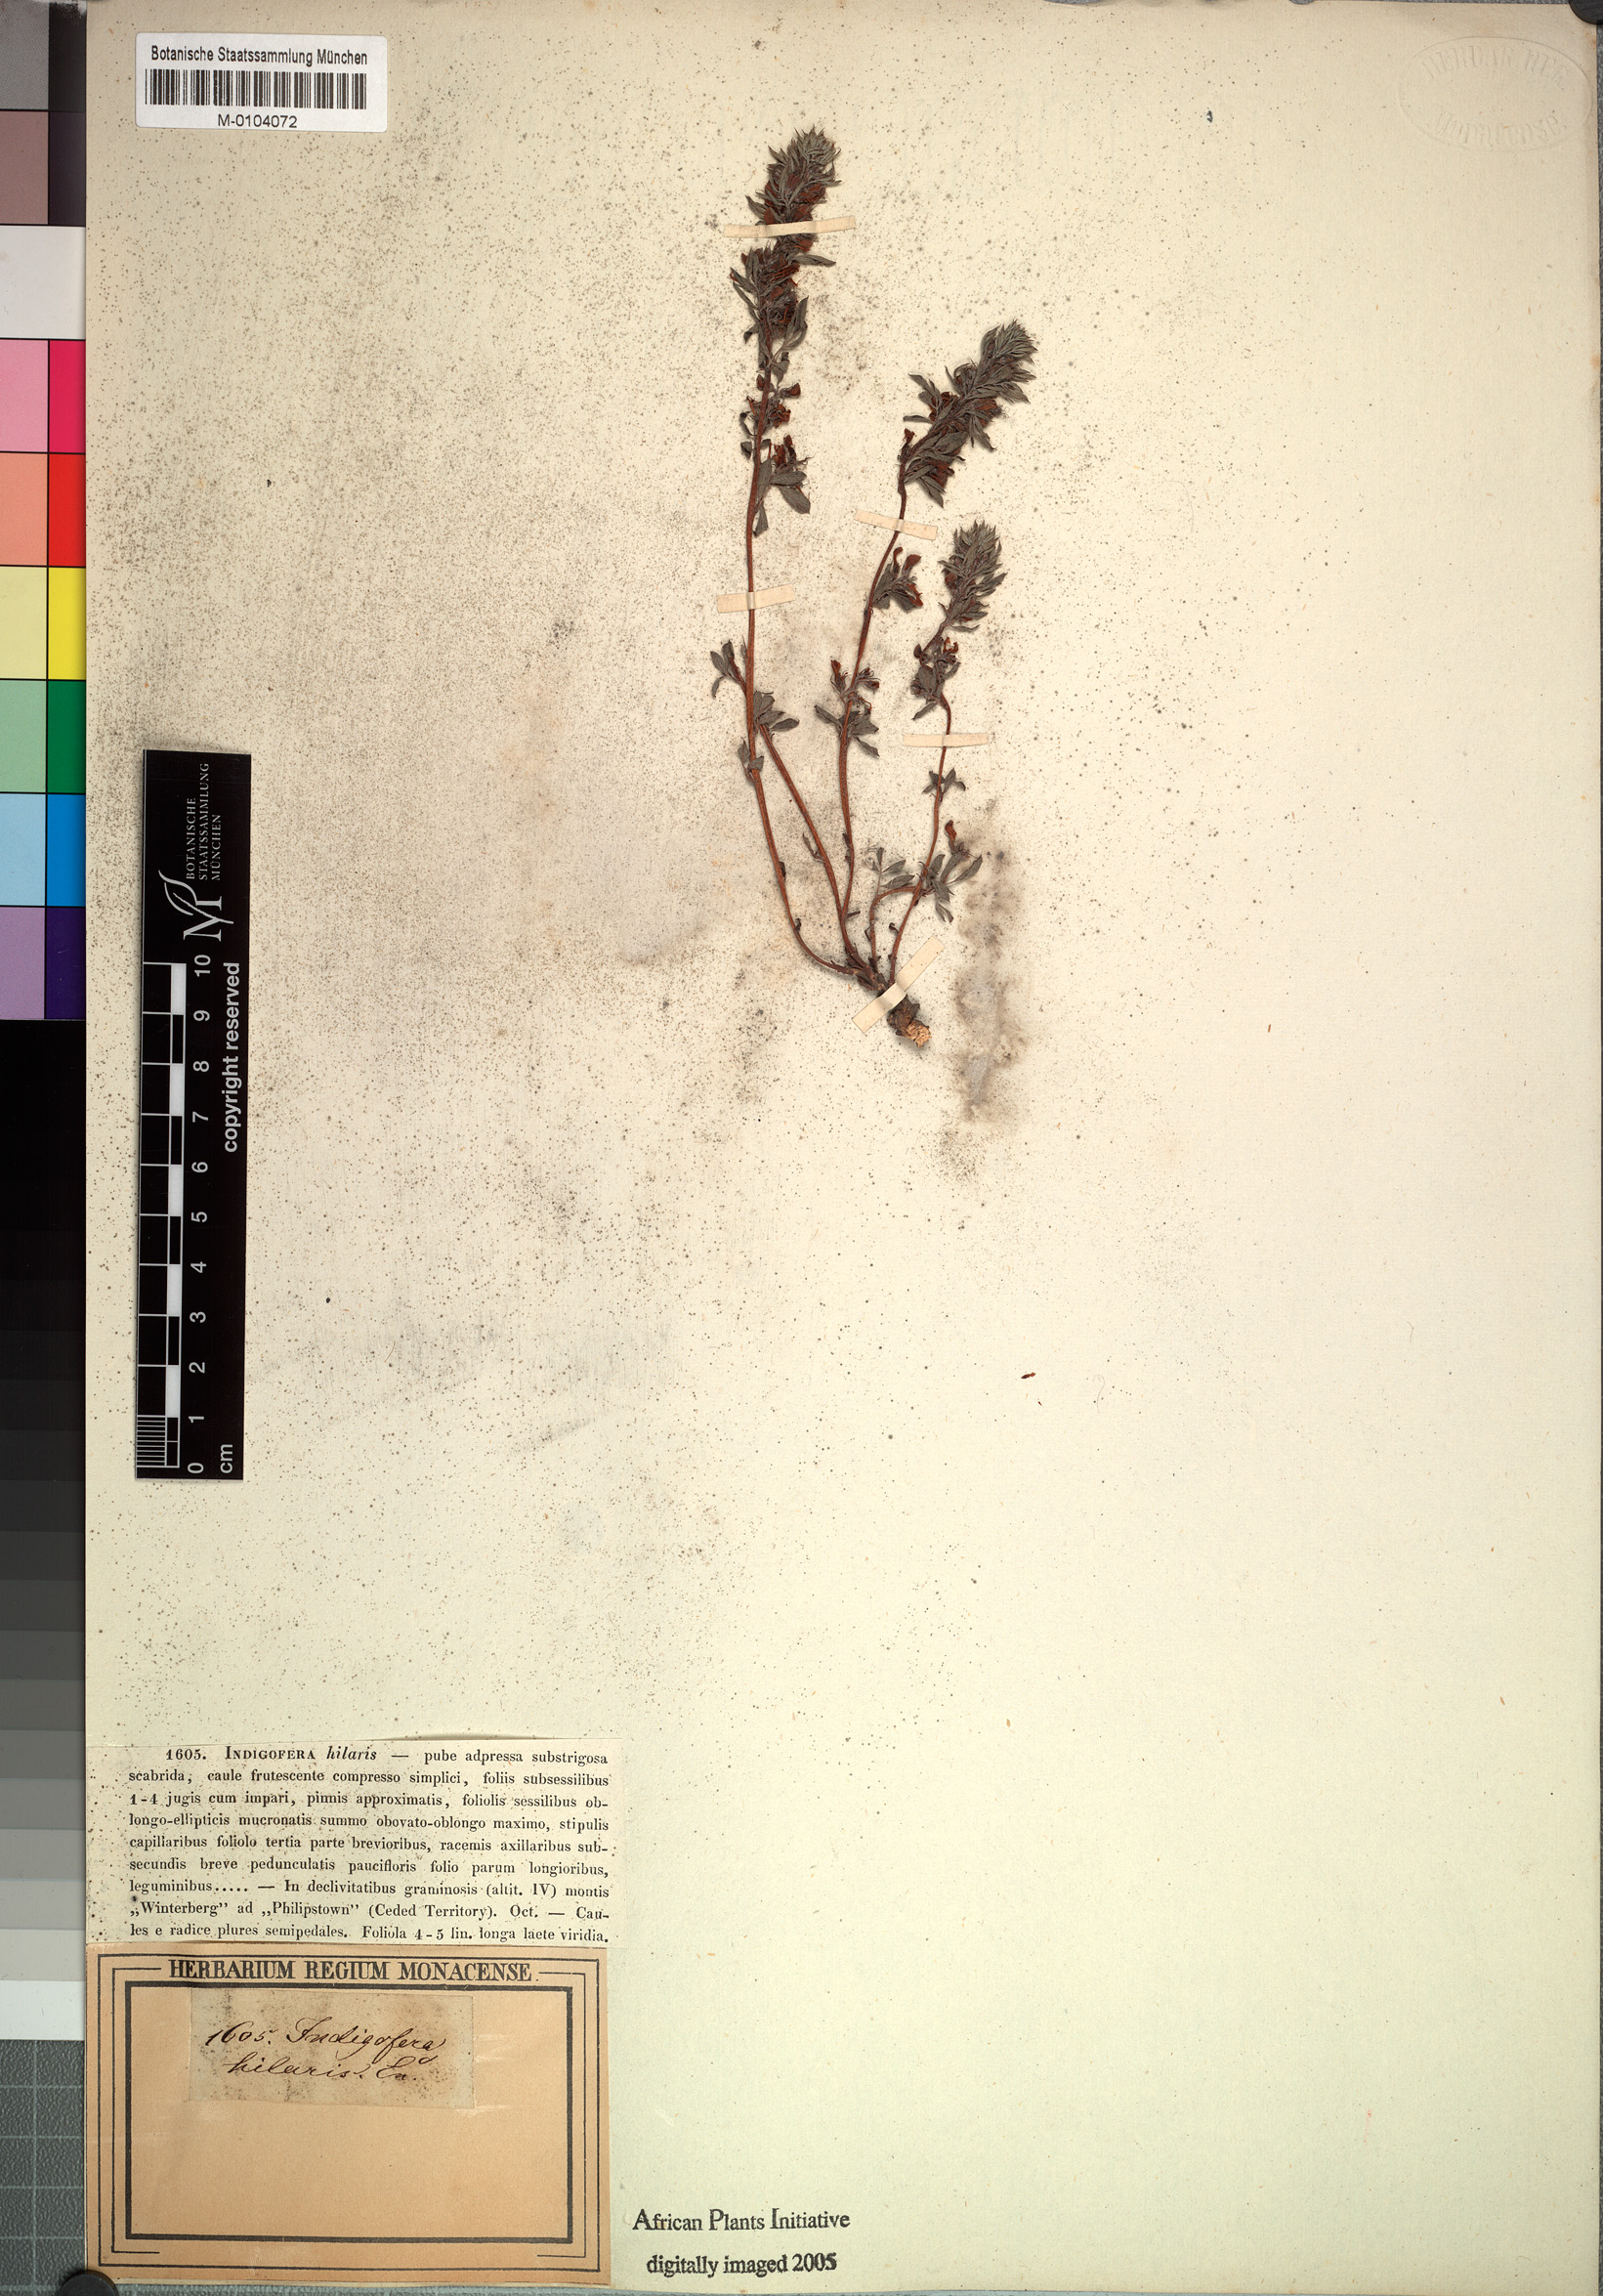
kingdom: Plantae
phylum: Tracheophyta
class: Magnoliopsida
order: Fabales
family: Fabaceae
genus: Indigofera
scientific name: Indigofera hilaris
